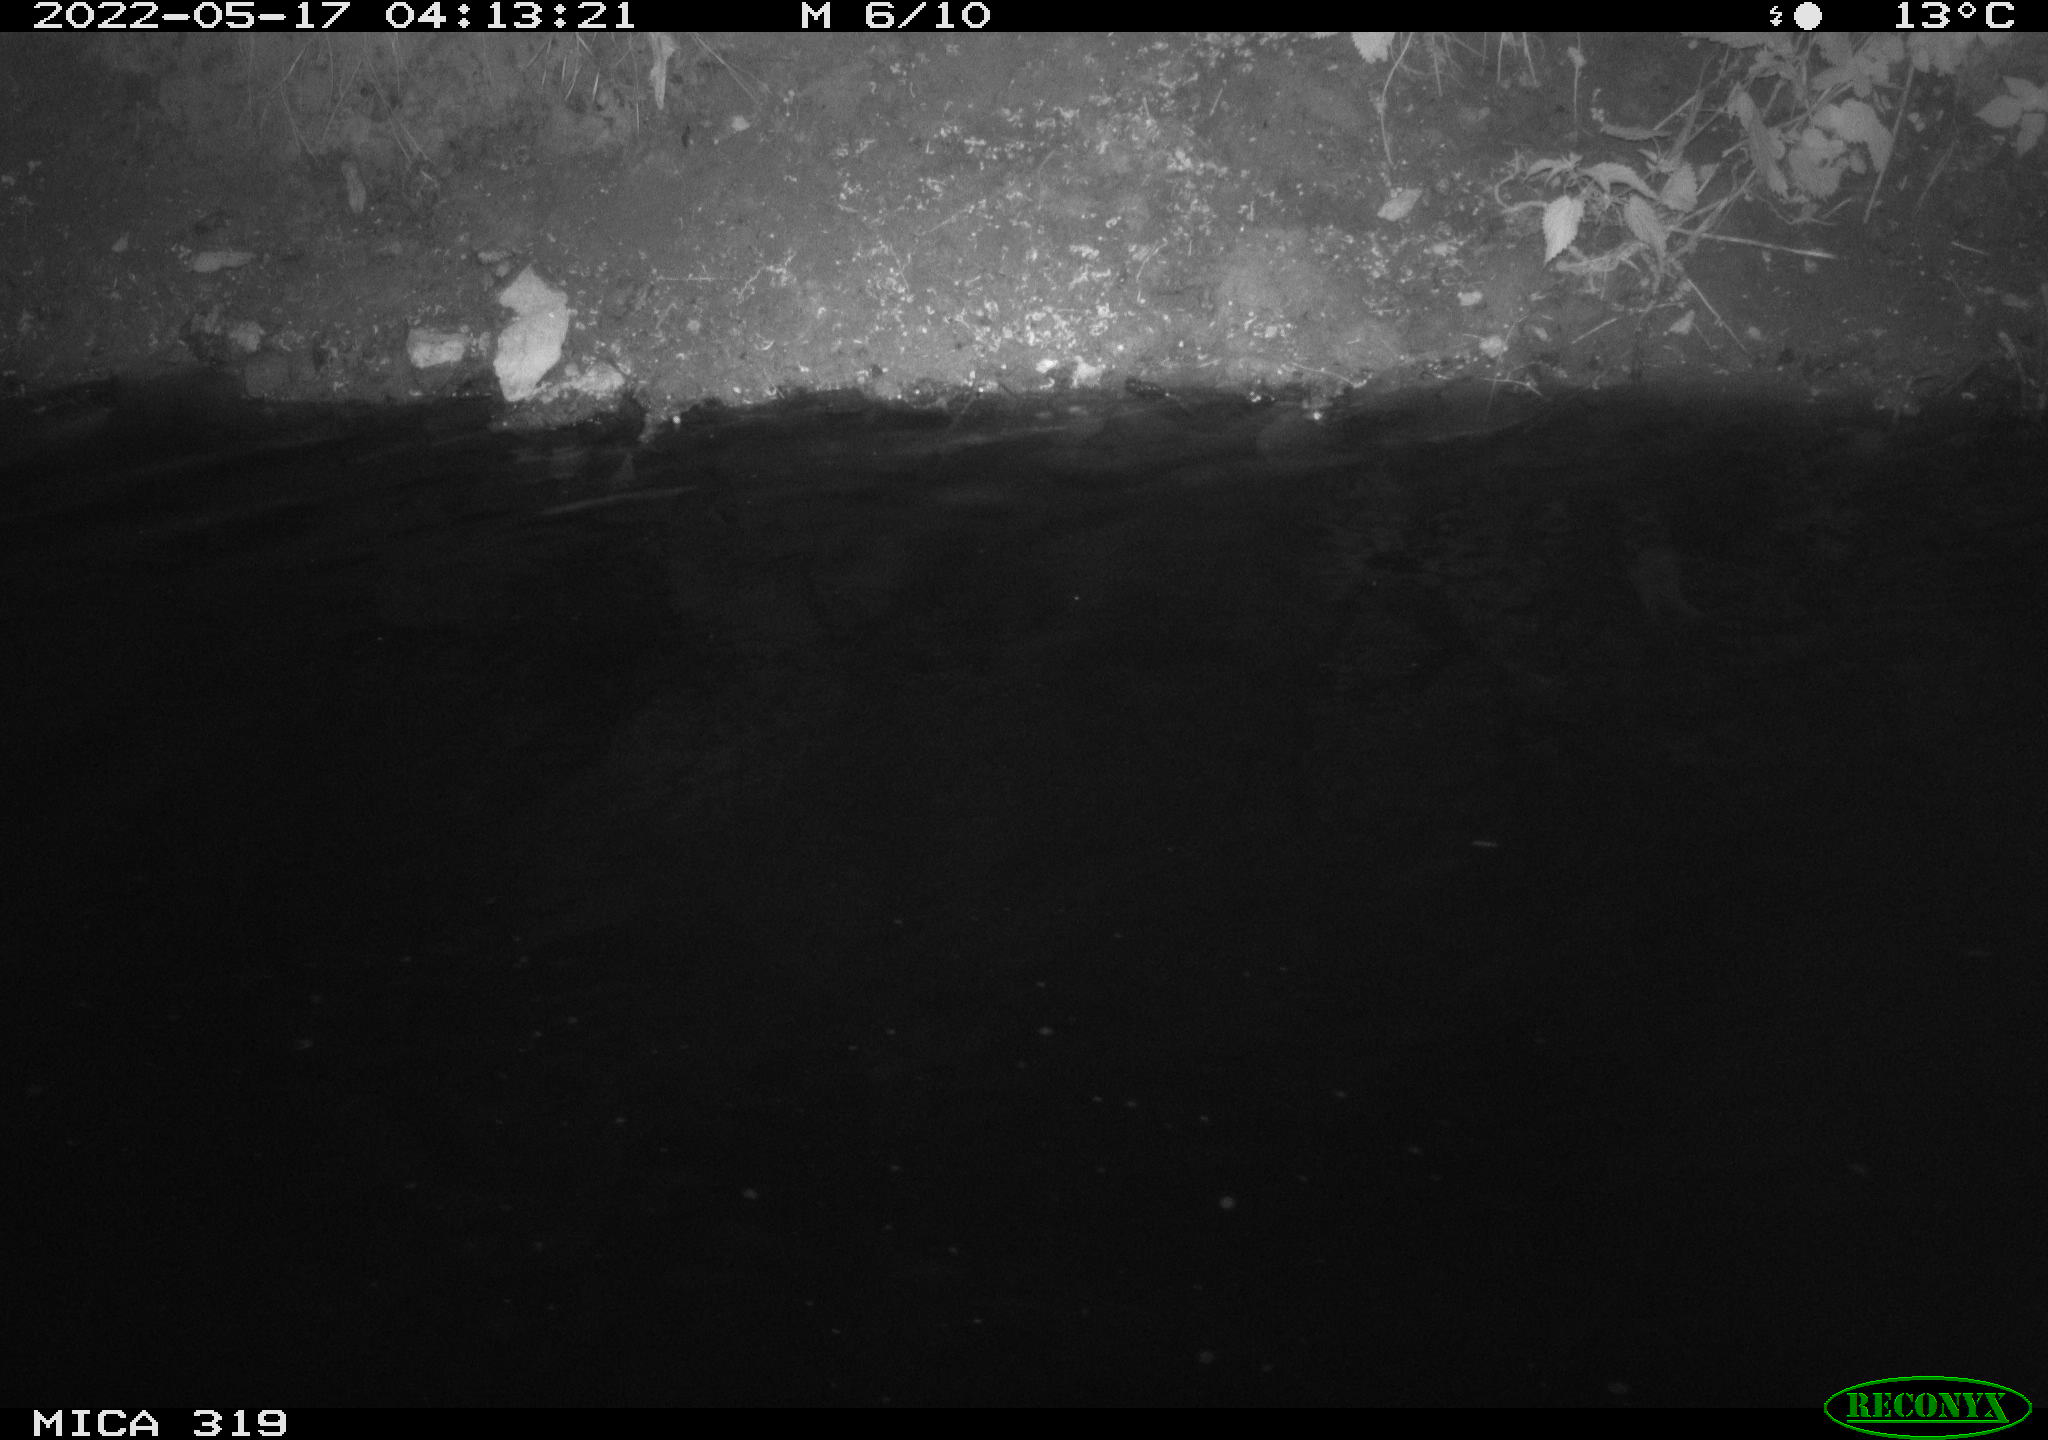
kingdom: Animalia
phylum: Chordata
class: Aves
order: Anseriformes
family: Anatidae
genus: Anas
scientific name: Anas
